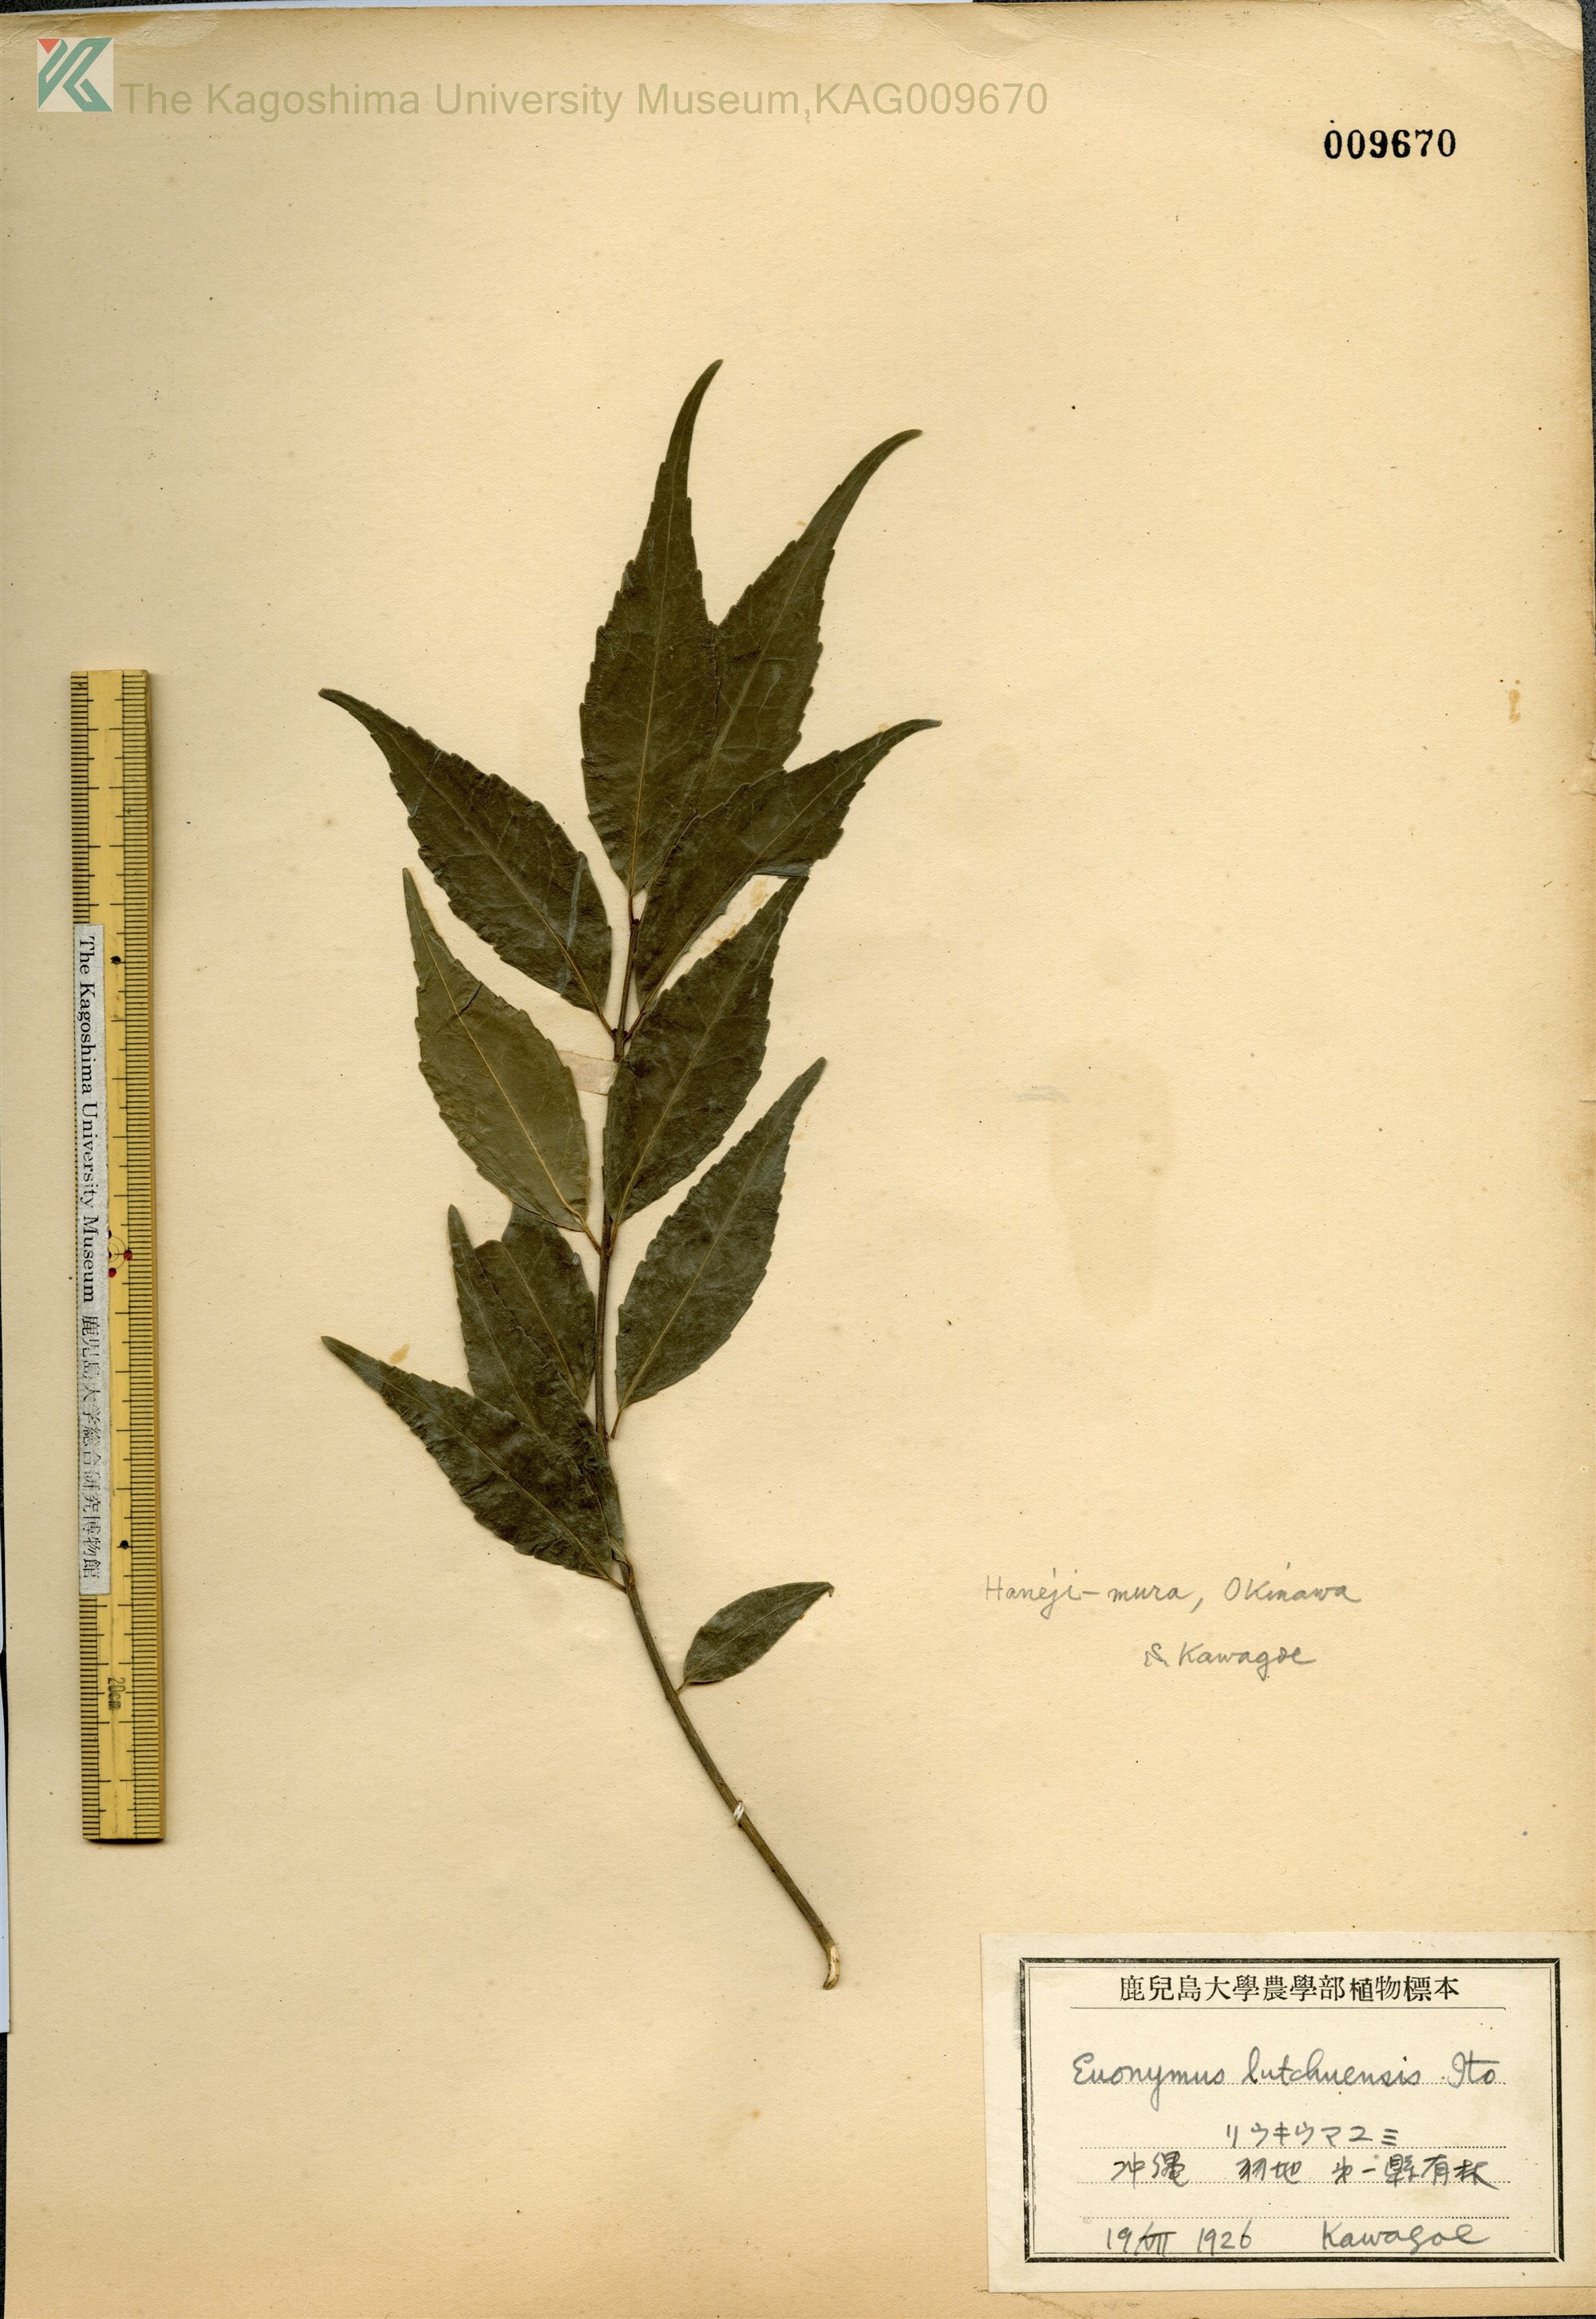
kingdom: Plantae
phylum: Tracheophyta
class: Magnoliopsida
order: Celastrales
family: Celastraceae
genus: Euonymus
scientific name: Euonymus lutchuensis
